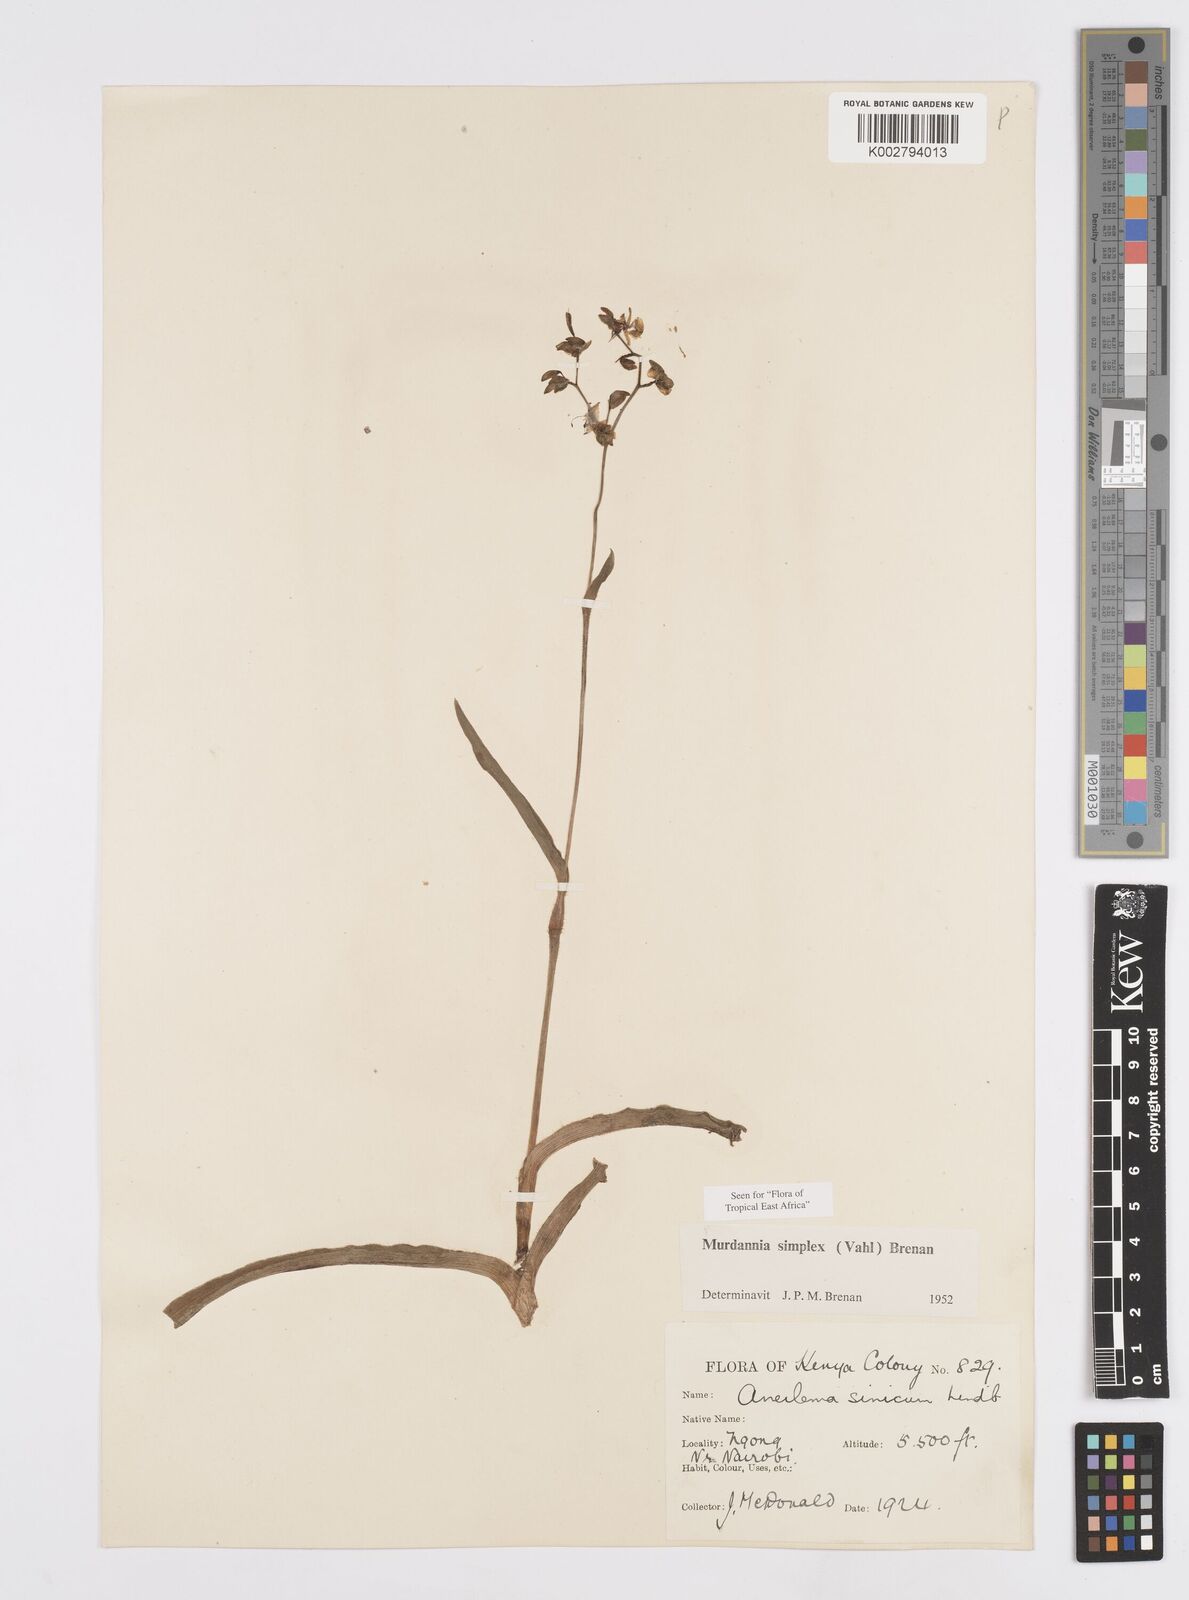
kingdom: Plantae
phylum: Tracheophyta
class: Liliopsida
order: Commelinales
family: Commelinaceae
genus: Murdannia
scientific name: Murdannia simplex
